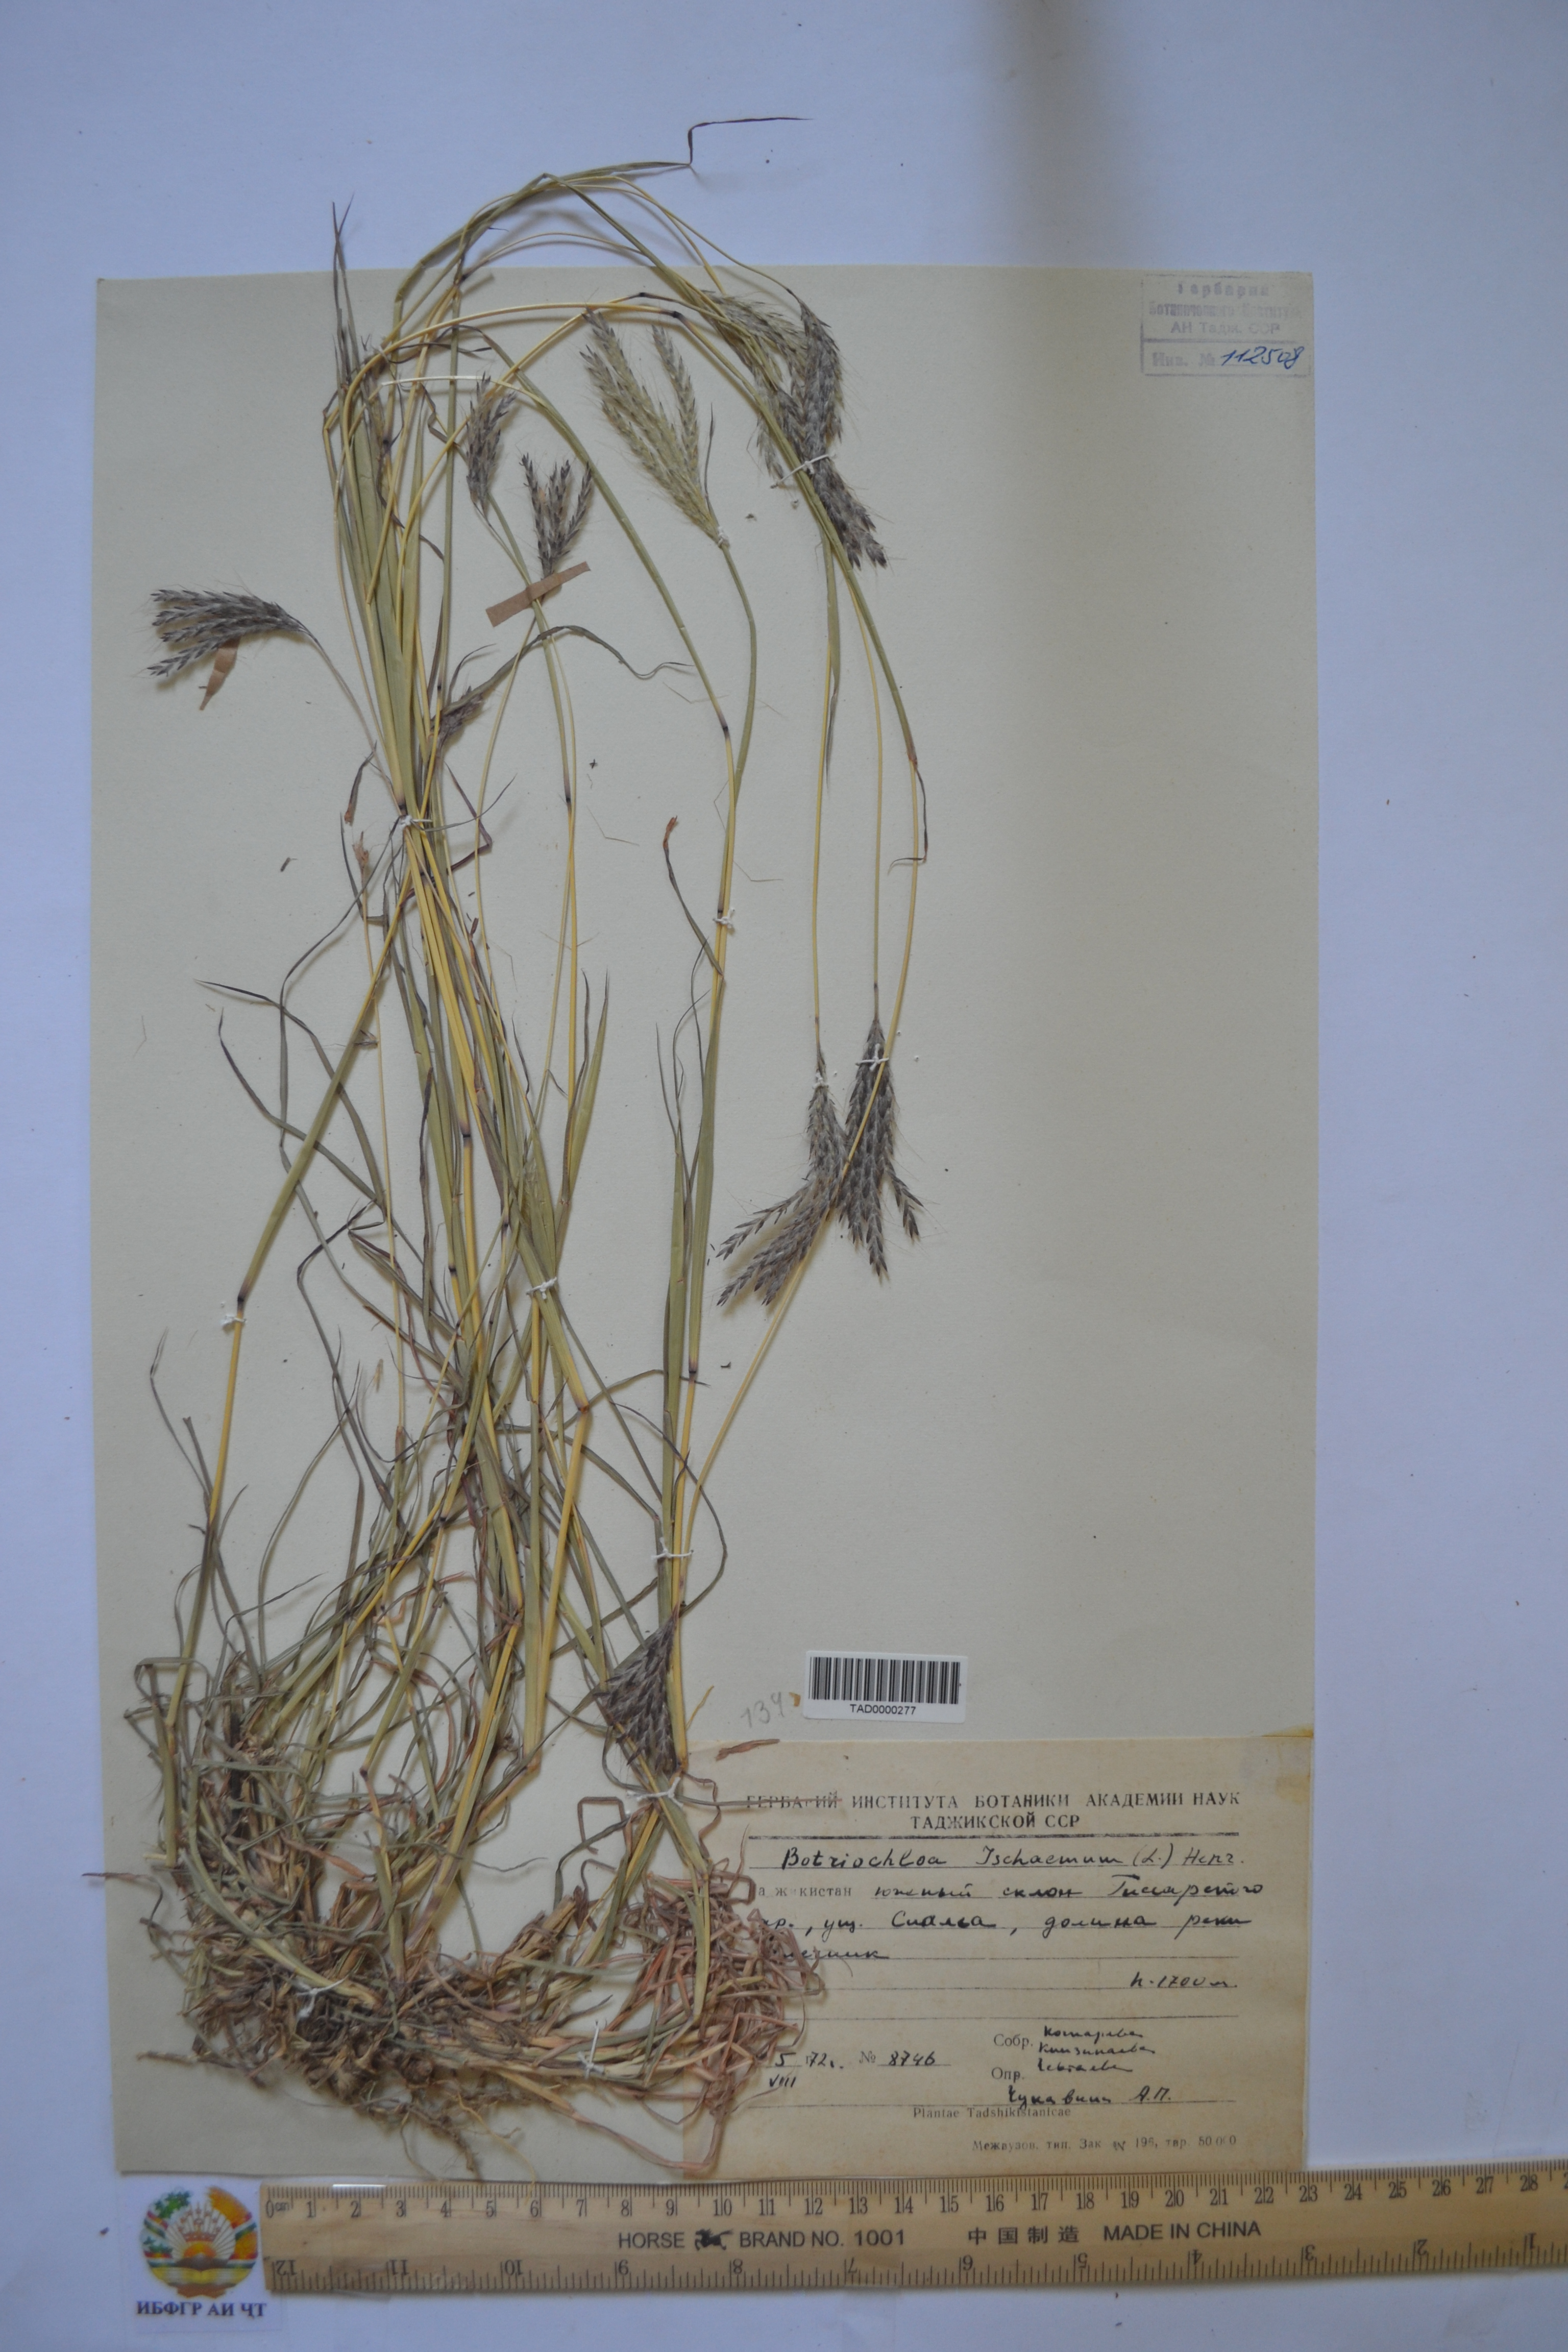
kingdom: Plantae
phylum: Tracheophyta
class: Liliopsida
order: Poales
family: Poaceae
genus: Andropogon
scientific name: Andropogon ischaemum
